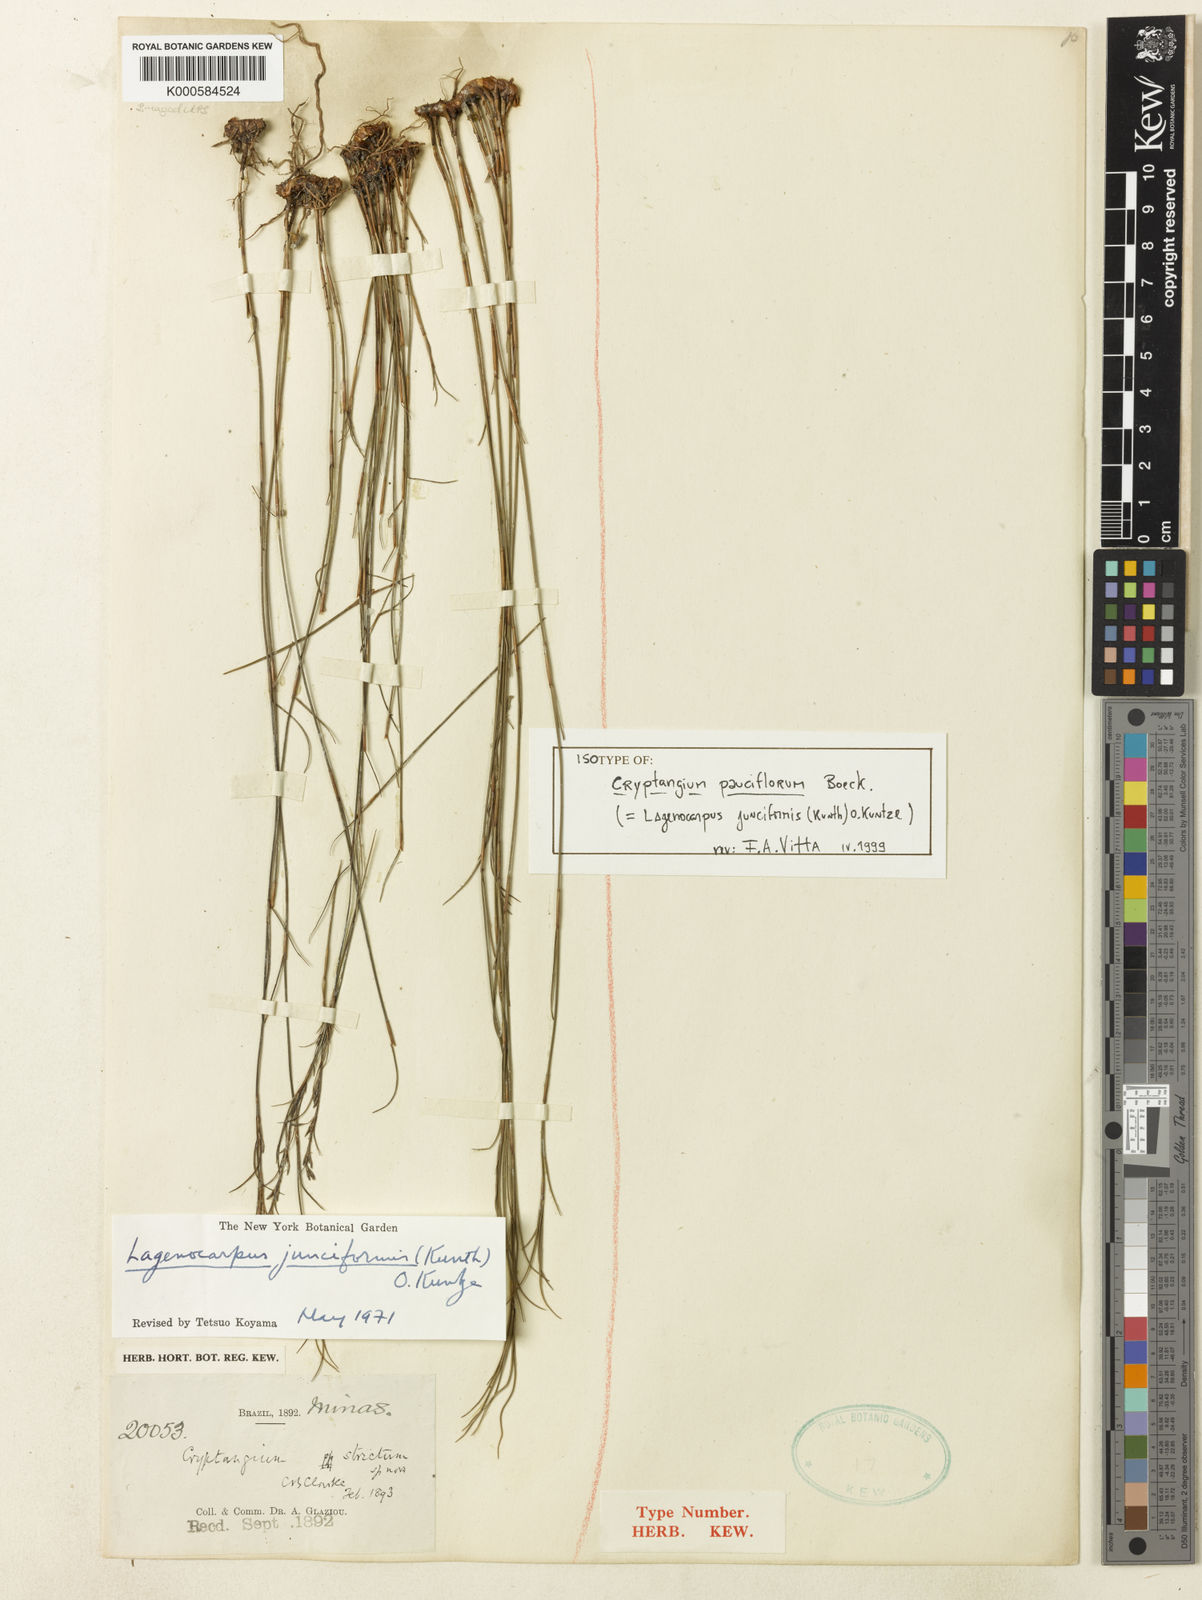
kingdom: Plantae
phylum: Tracheophyta
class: Liliopsida
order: Poales
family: Cyperaceae
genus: Krenakia
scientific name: Krenakia junciformis
